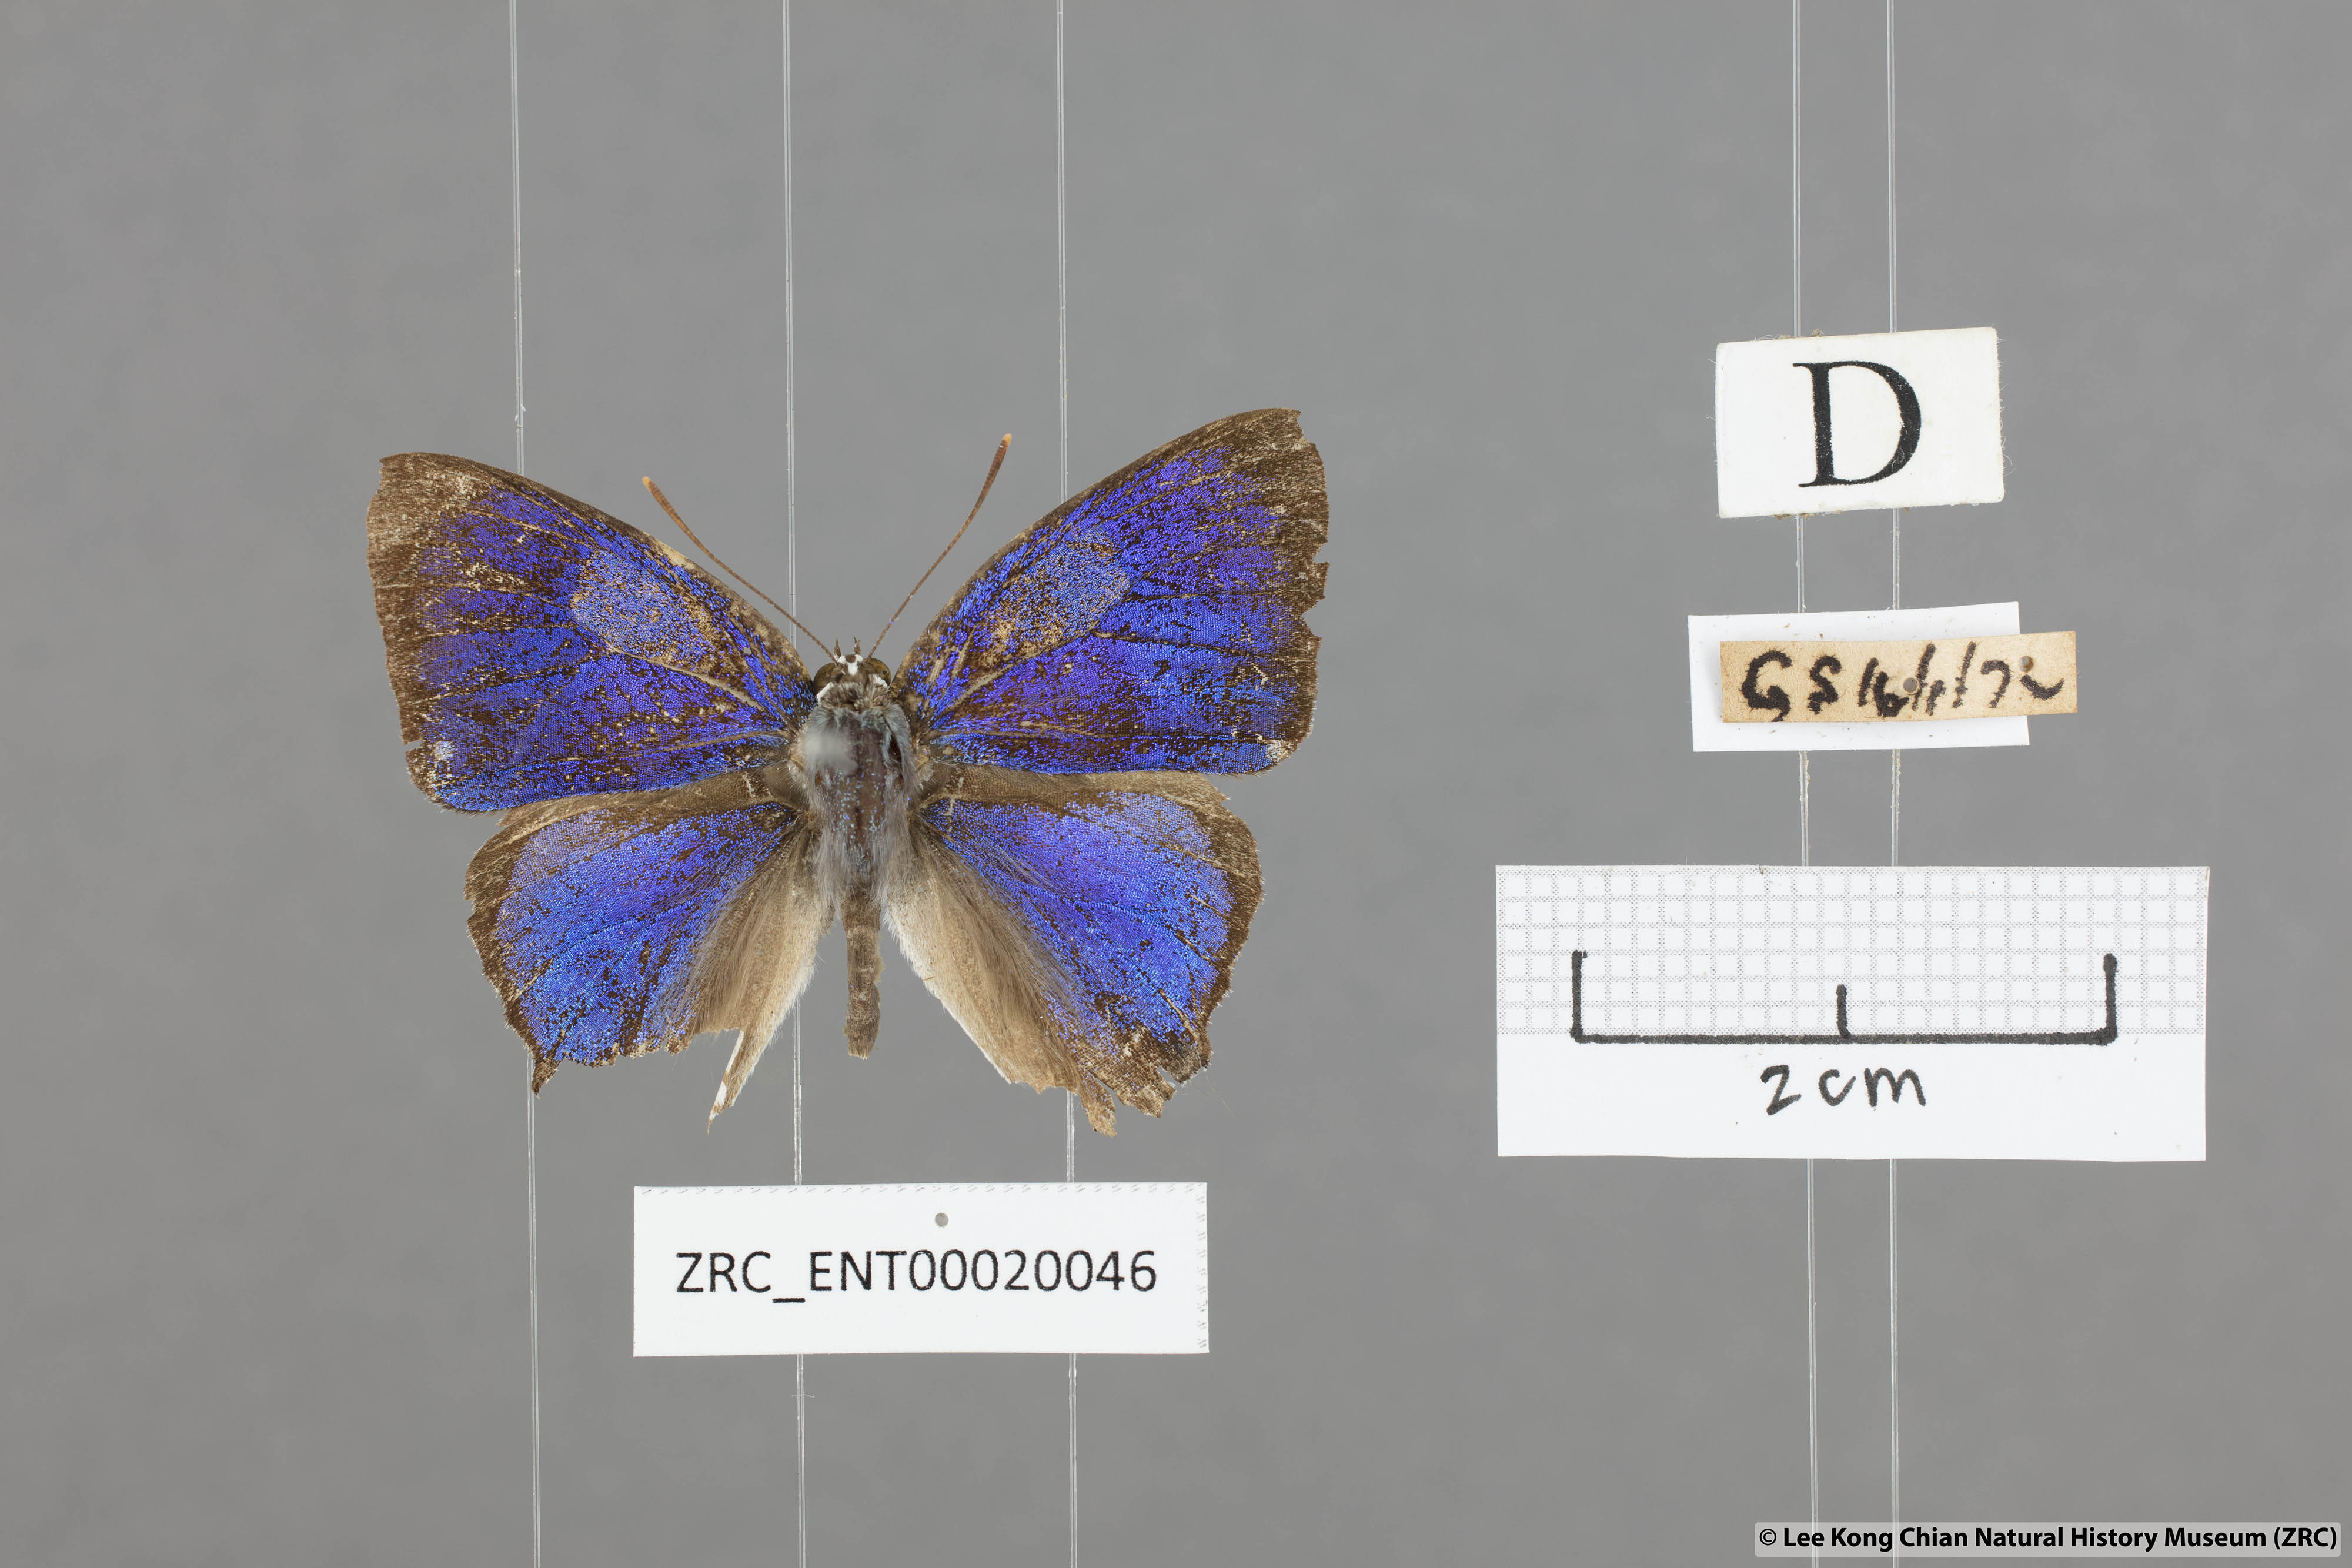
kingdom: Animalia
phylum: Arthropoda
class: Insecta
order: Lepidoptera
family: Hesperiidae
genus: Rachana
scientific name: Rachana jalindra
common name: Banded royal
